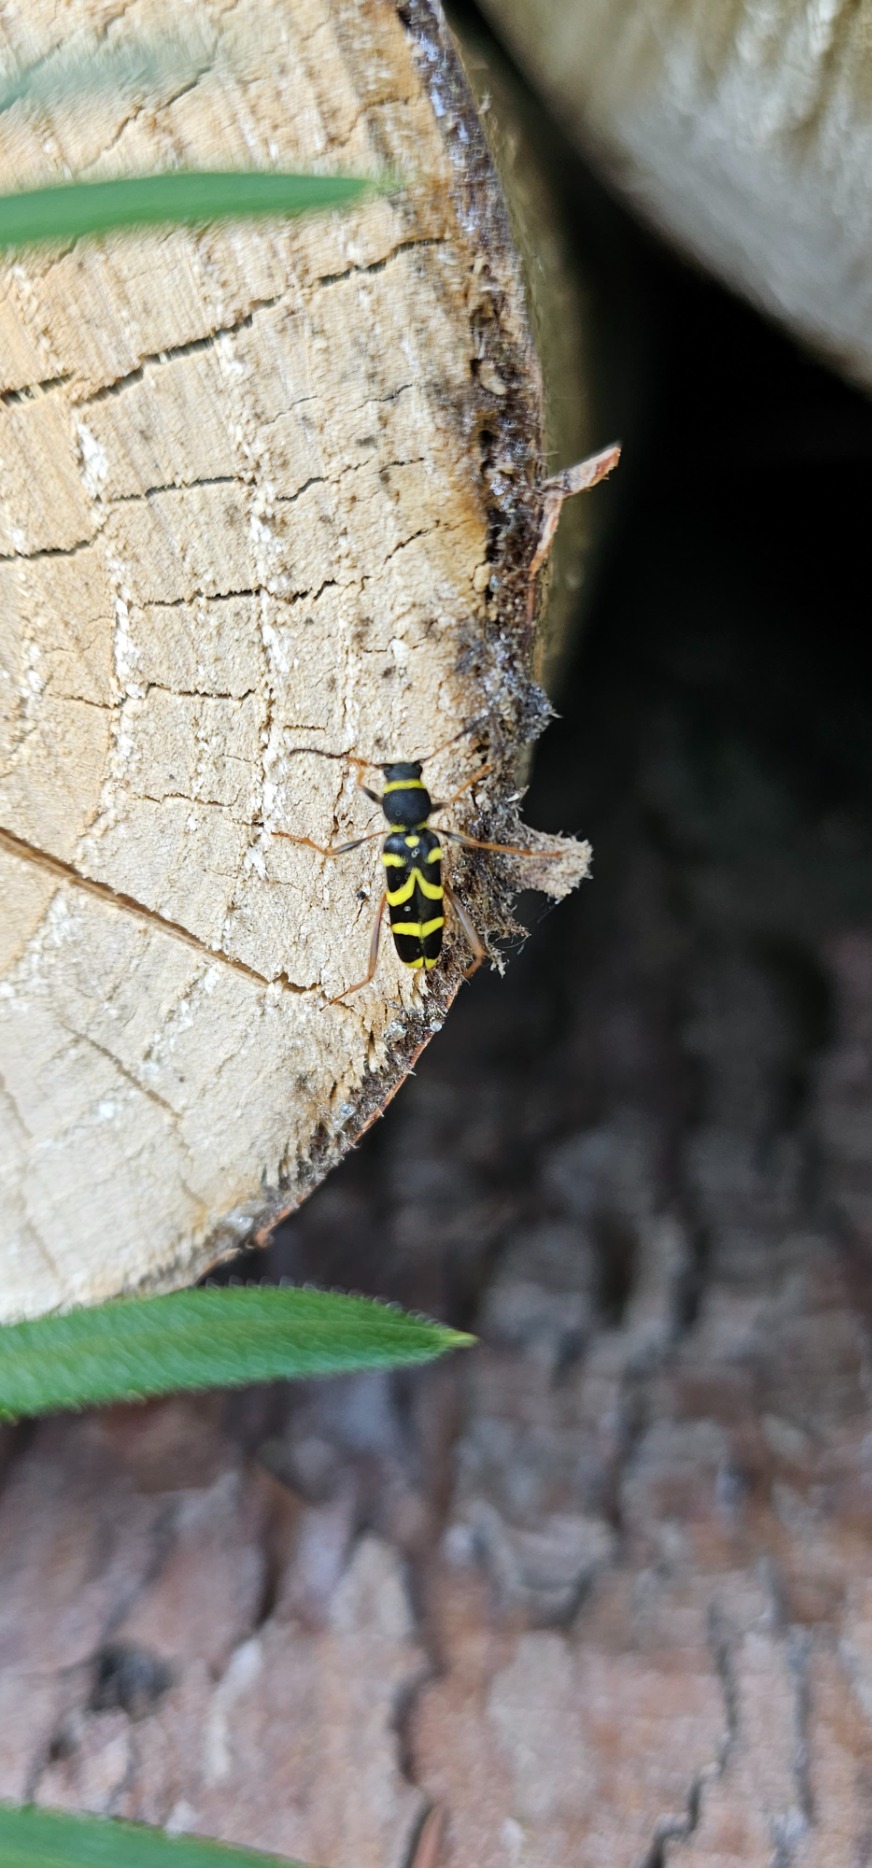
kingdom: Animalia
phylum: Arthropoda
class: Insecta
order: Coleoptera
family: Cerambycidae
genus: Clytus
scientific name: Clytus arietis
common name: Lille hvepsebuk
